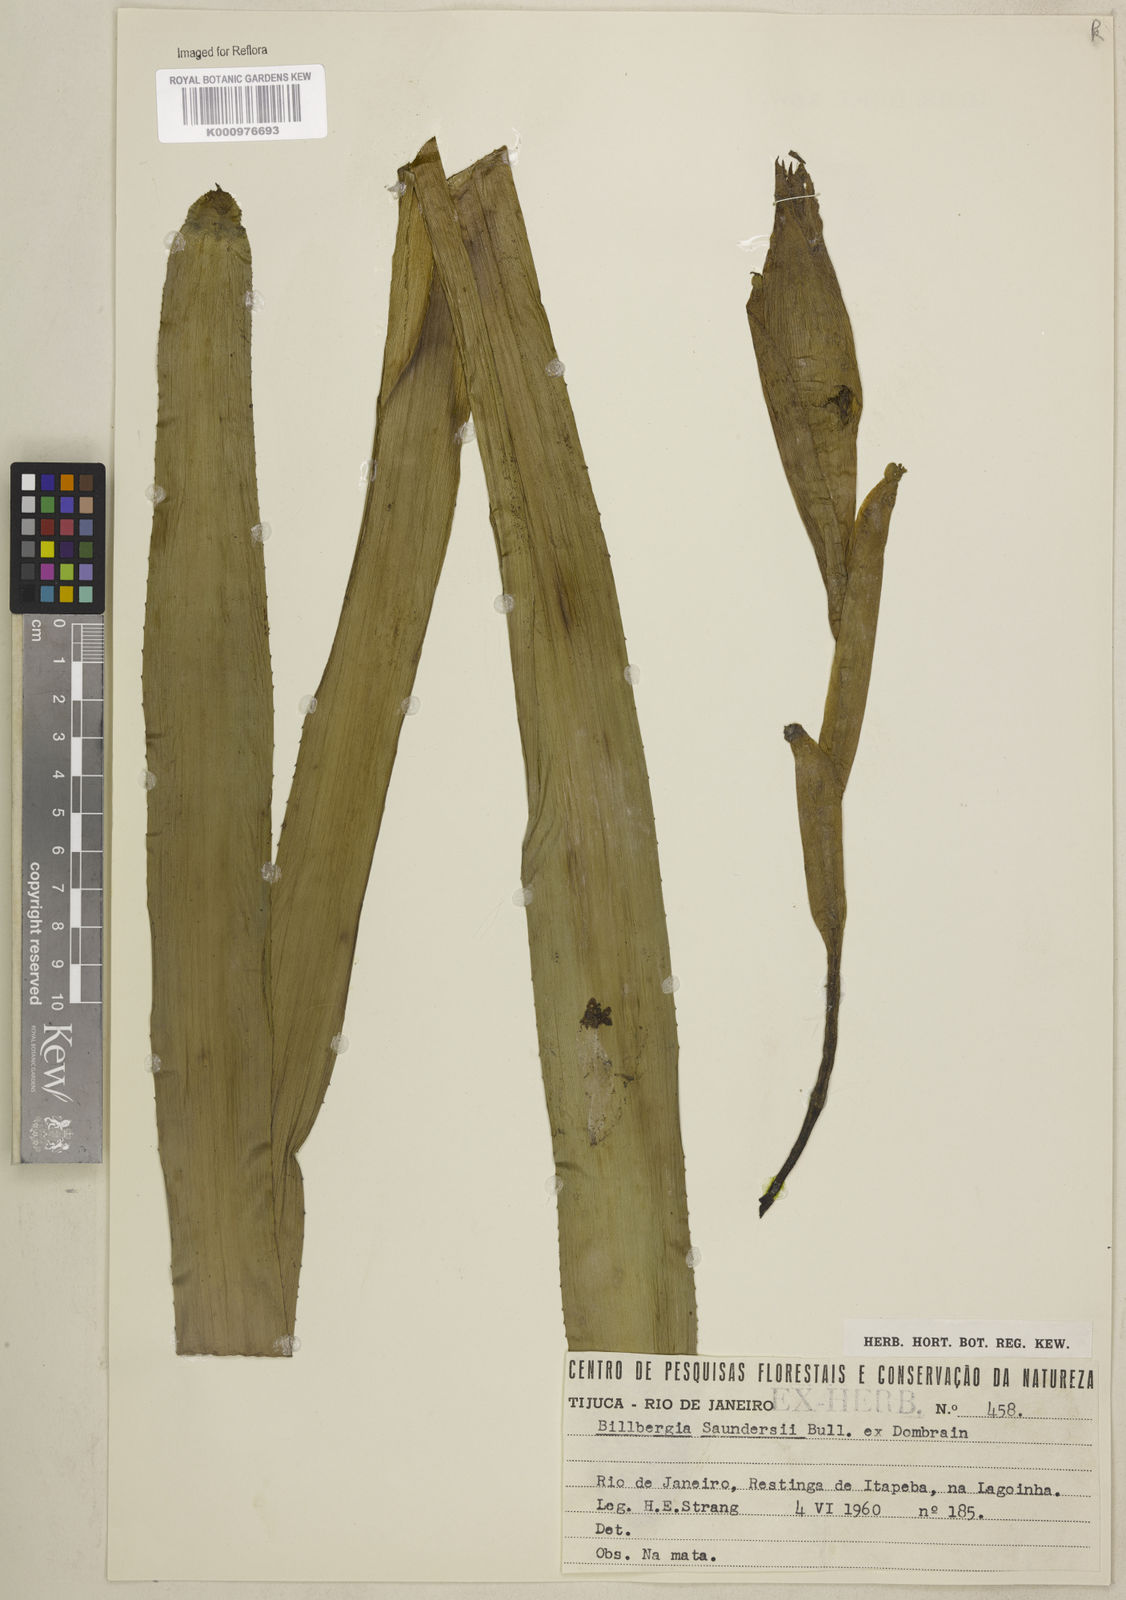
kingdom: Plantae
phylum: Tracheophyta
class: Liliopsida
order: Poales
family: Bromeliaceae
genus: Billbergia
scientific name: Billbergia saundersii
